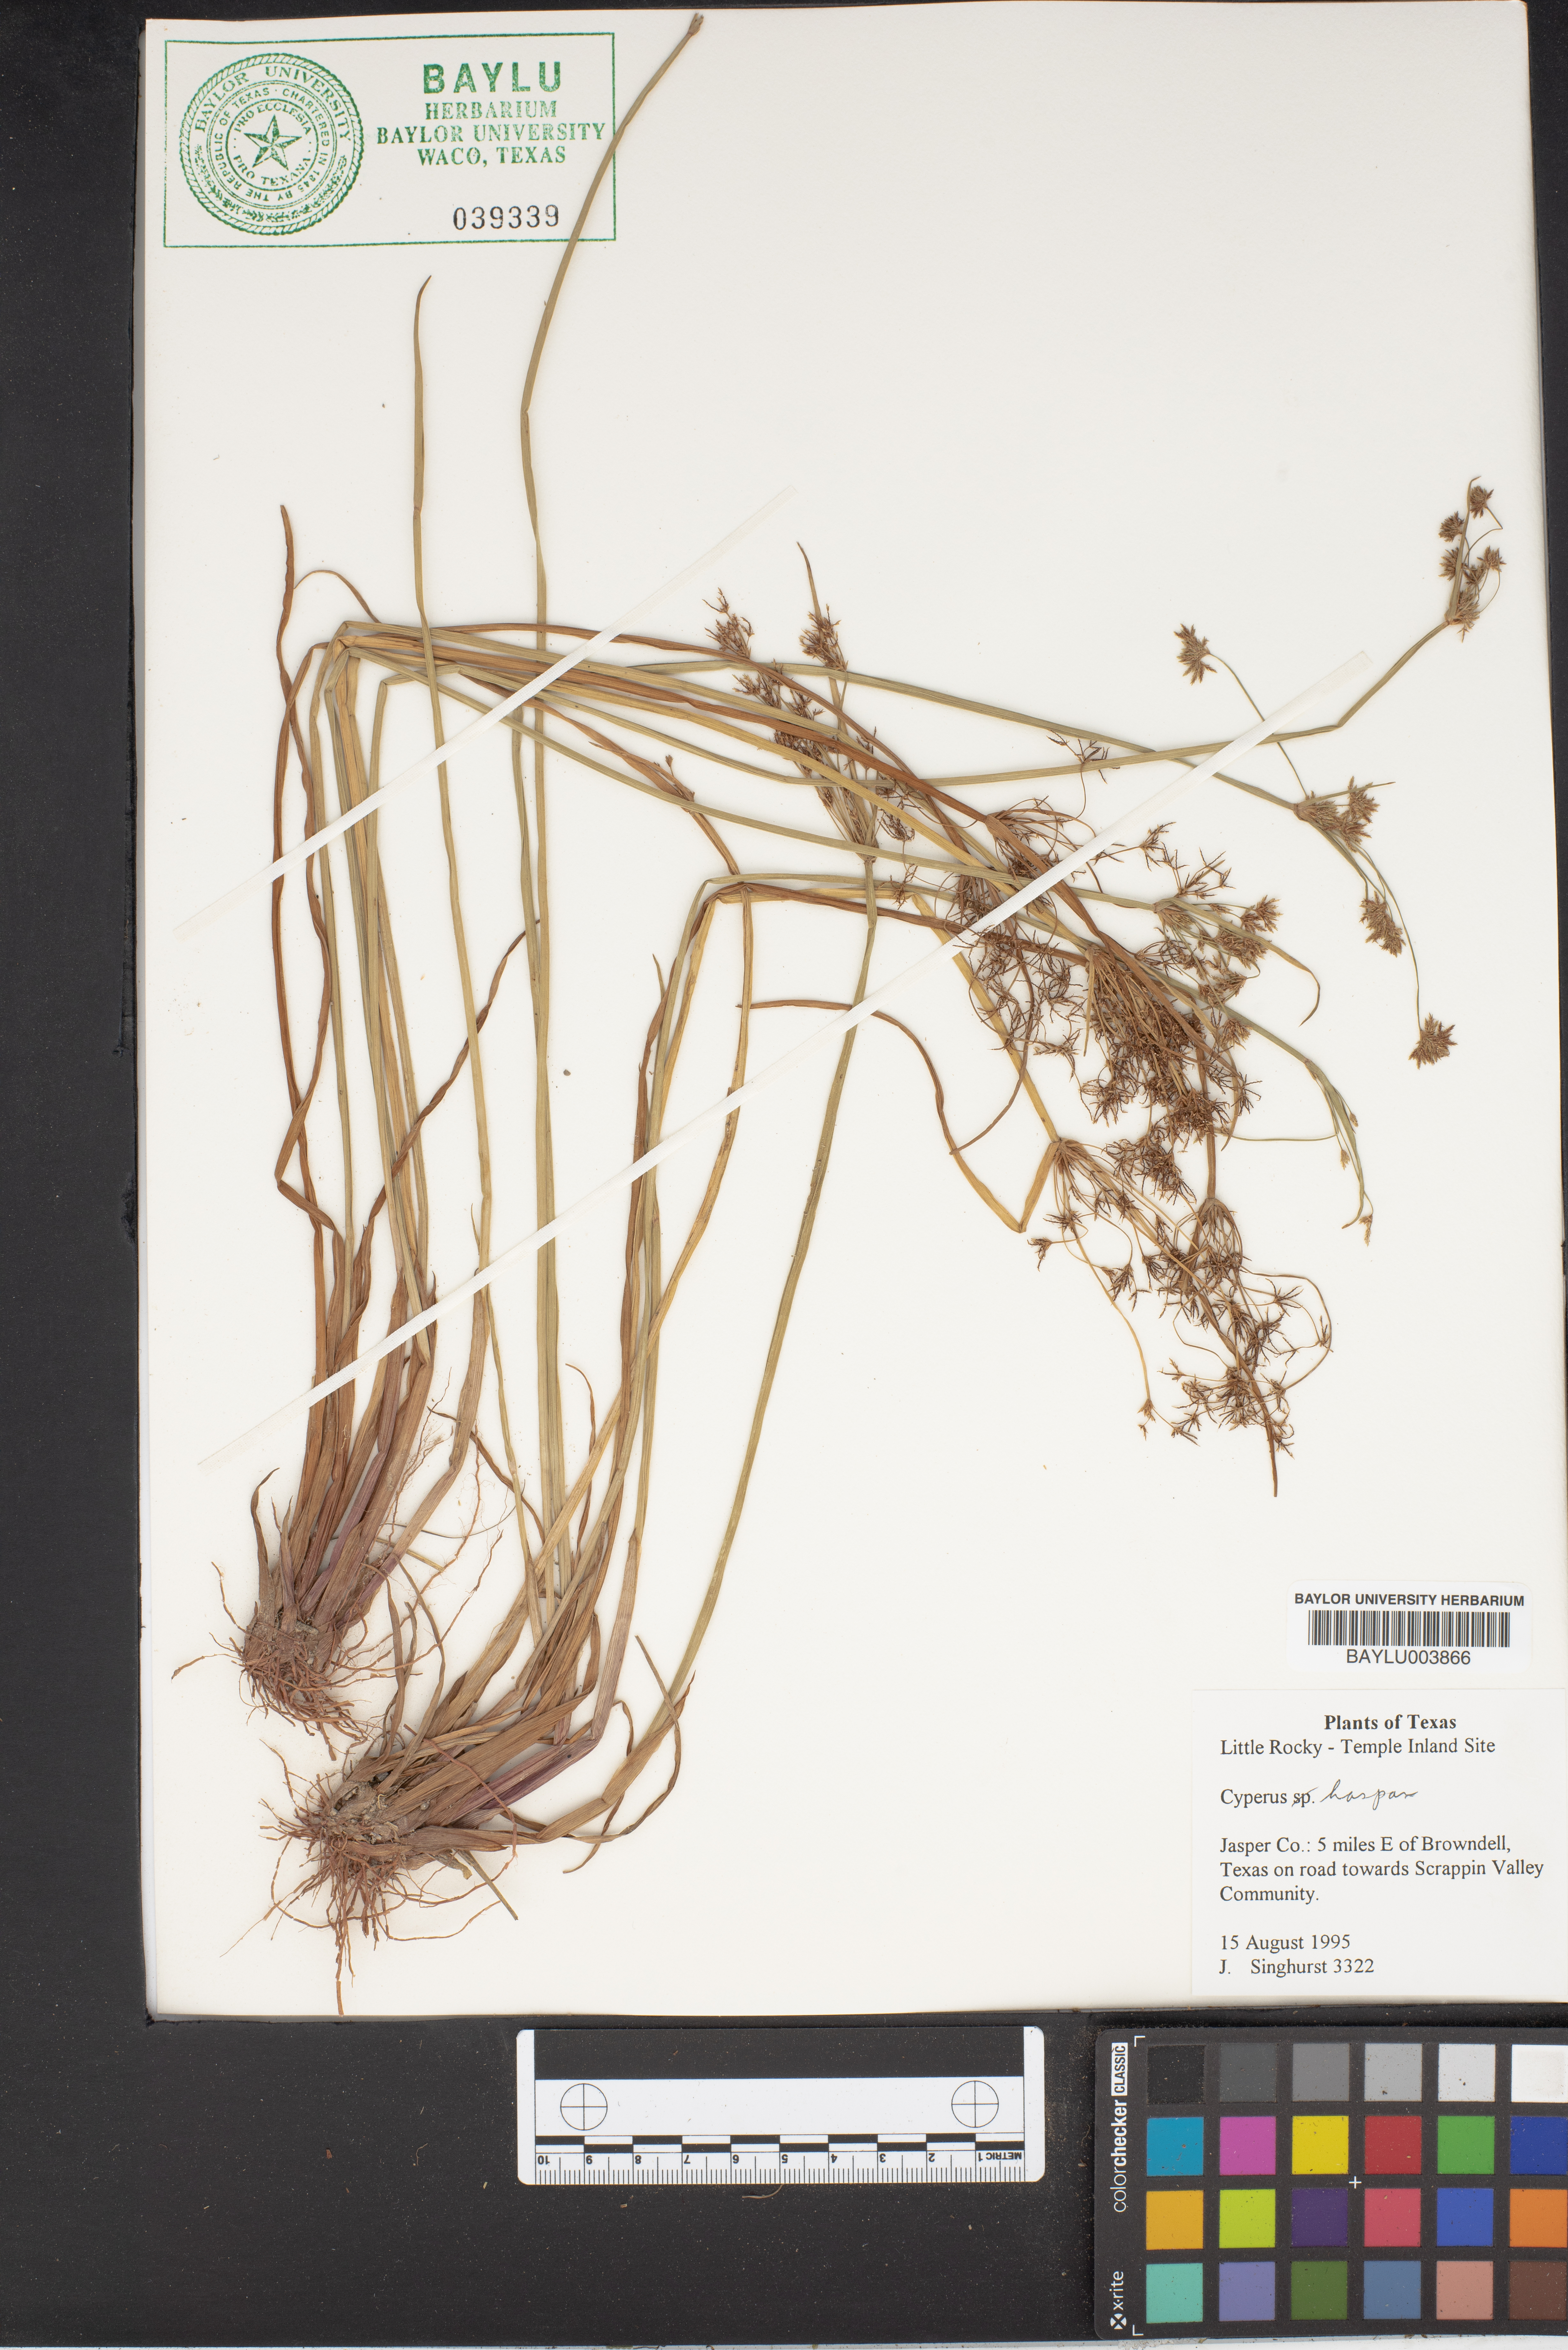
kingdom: Plantae
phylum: Tracheophyta
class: Liliopsida
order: Poales
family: Cyperaceae
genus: Cyperus
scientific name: Cyperus haspan
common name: Haspan flatsedge
